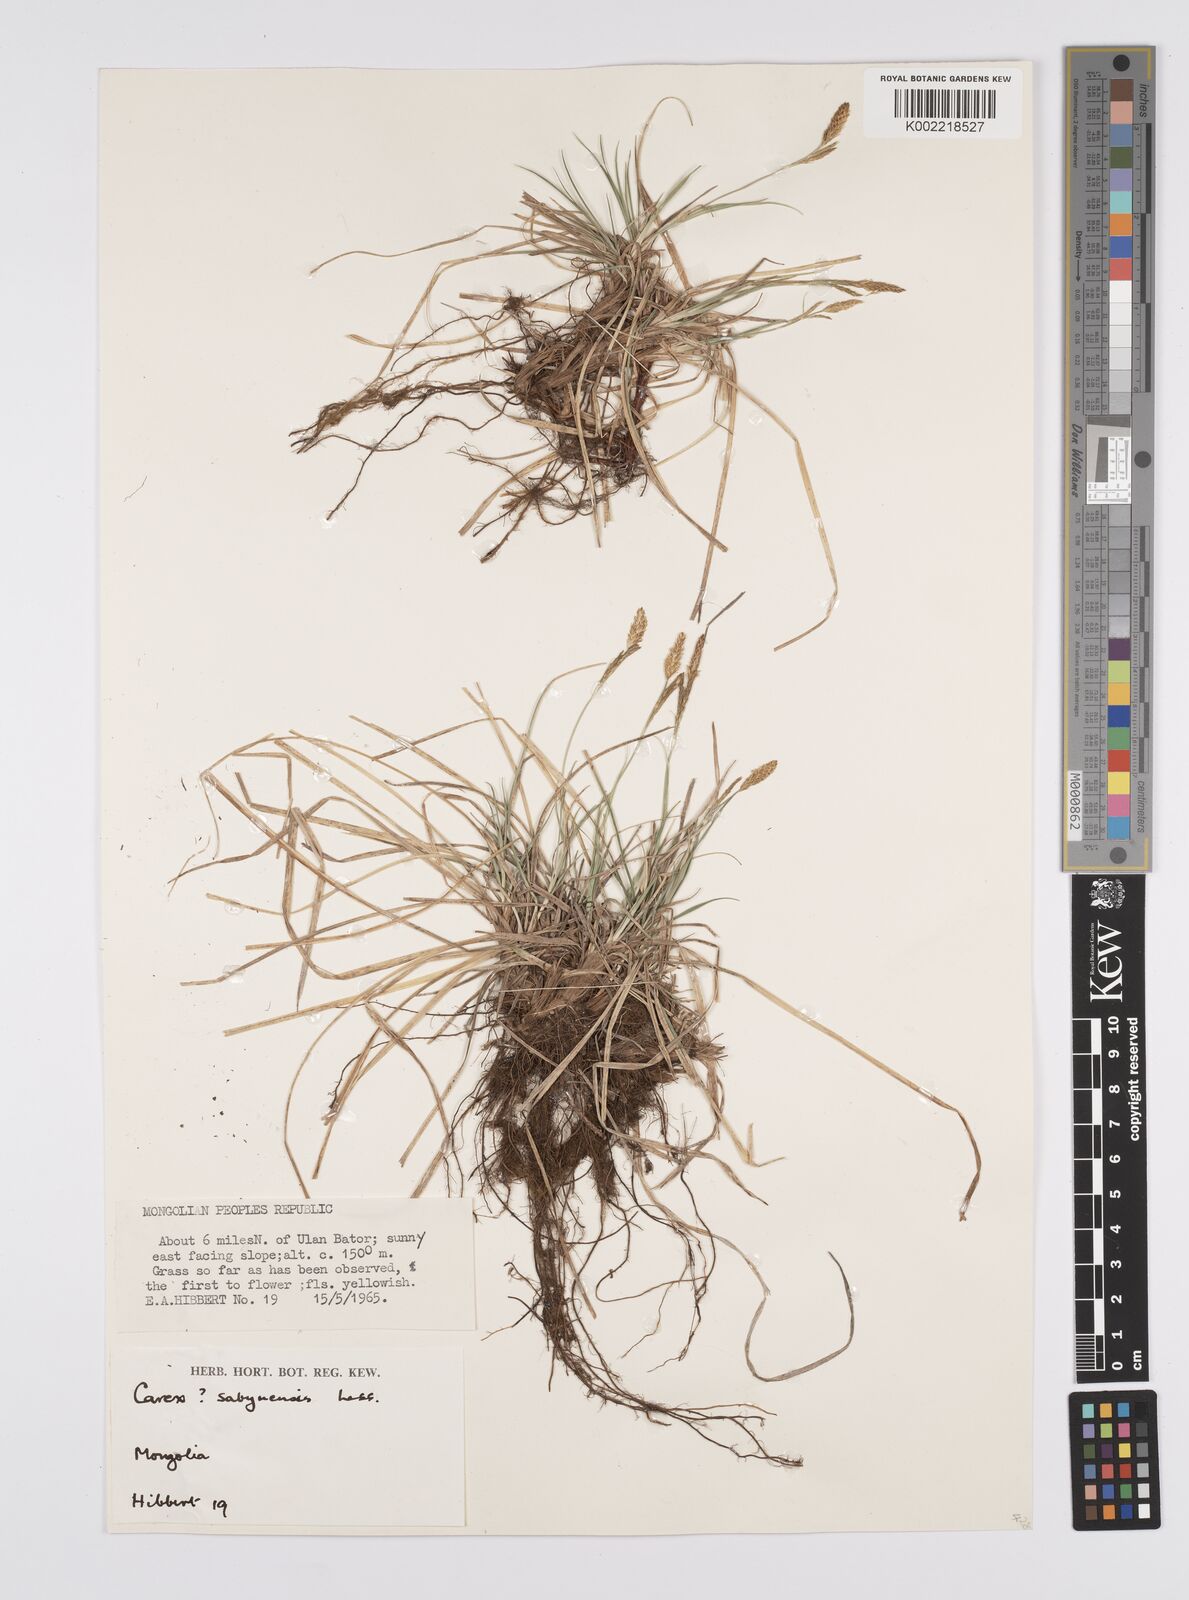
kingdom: Plantae
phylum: Tracheophyta
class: Liliopsida
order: Poales
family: Cyperaceae
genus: Carex
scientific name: Carex umbrosa
